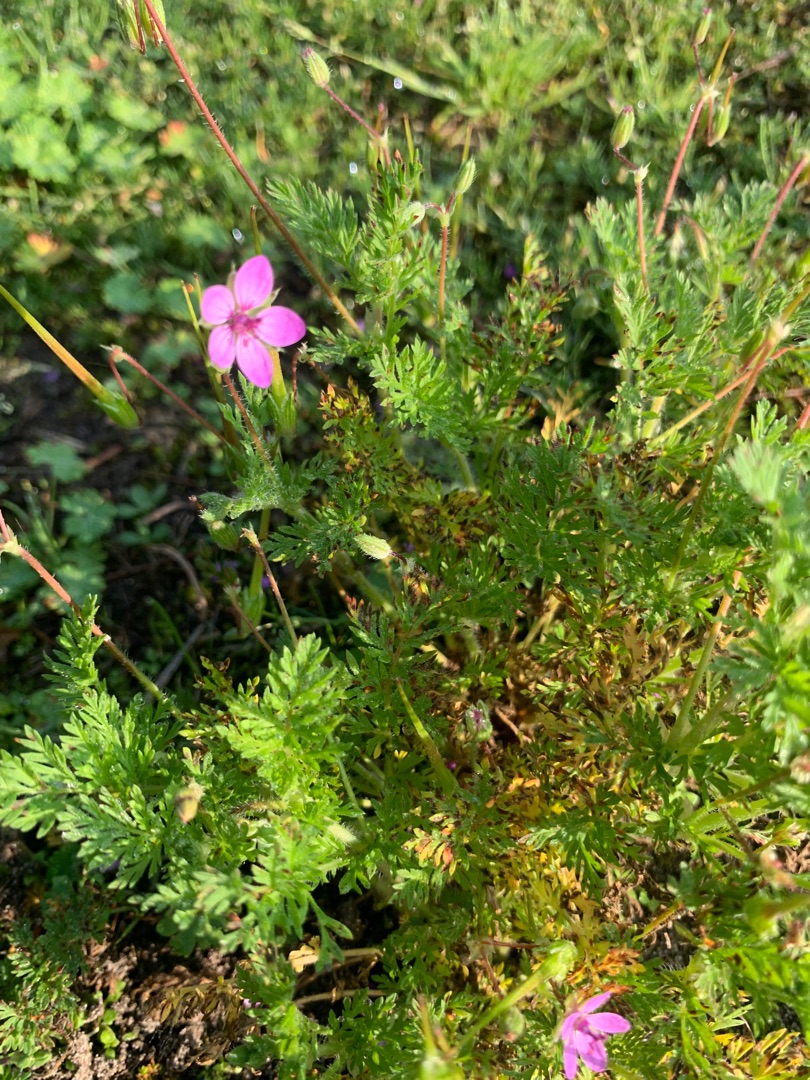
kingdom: Plantae
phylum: Tracheophyta
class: Magnoliopsida
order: Geraniales
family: Geraniaceae
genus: Erodium
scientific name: Erodium cicutarium
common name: Hejrenæb
